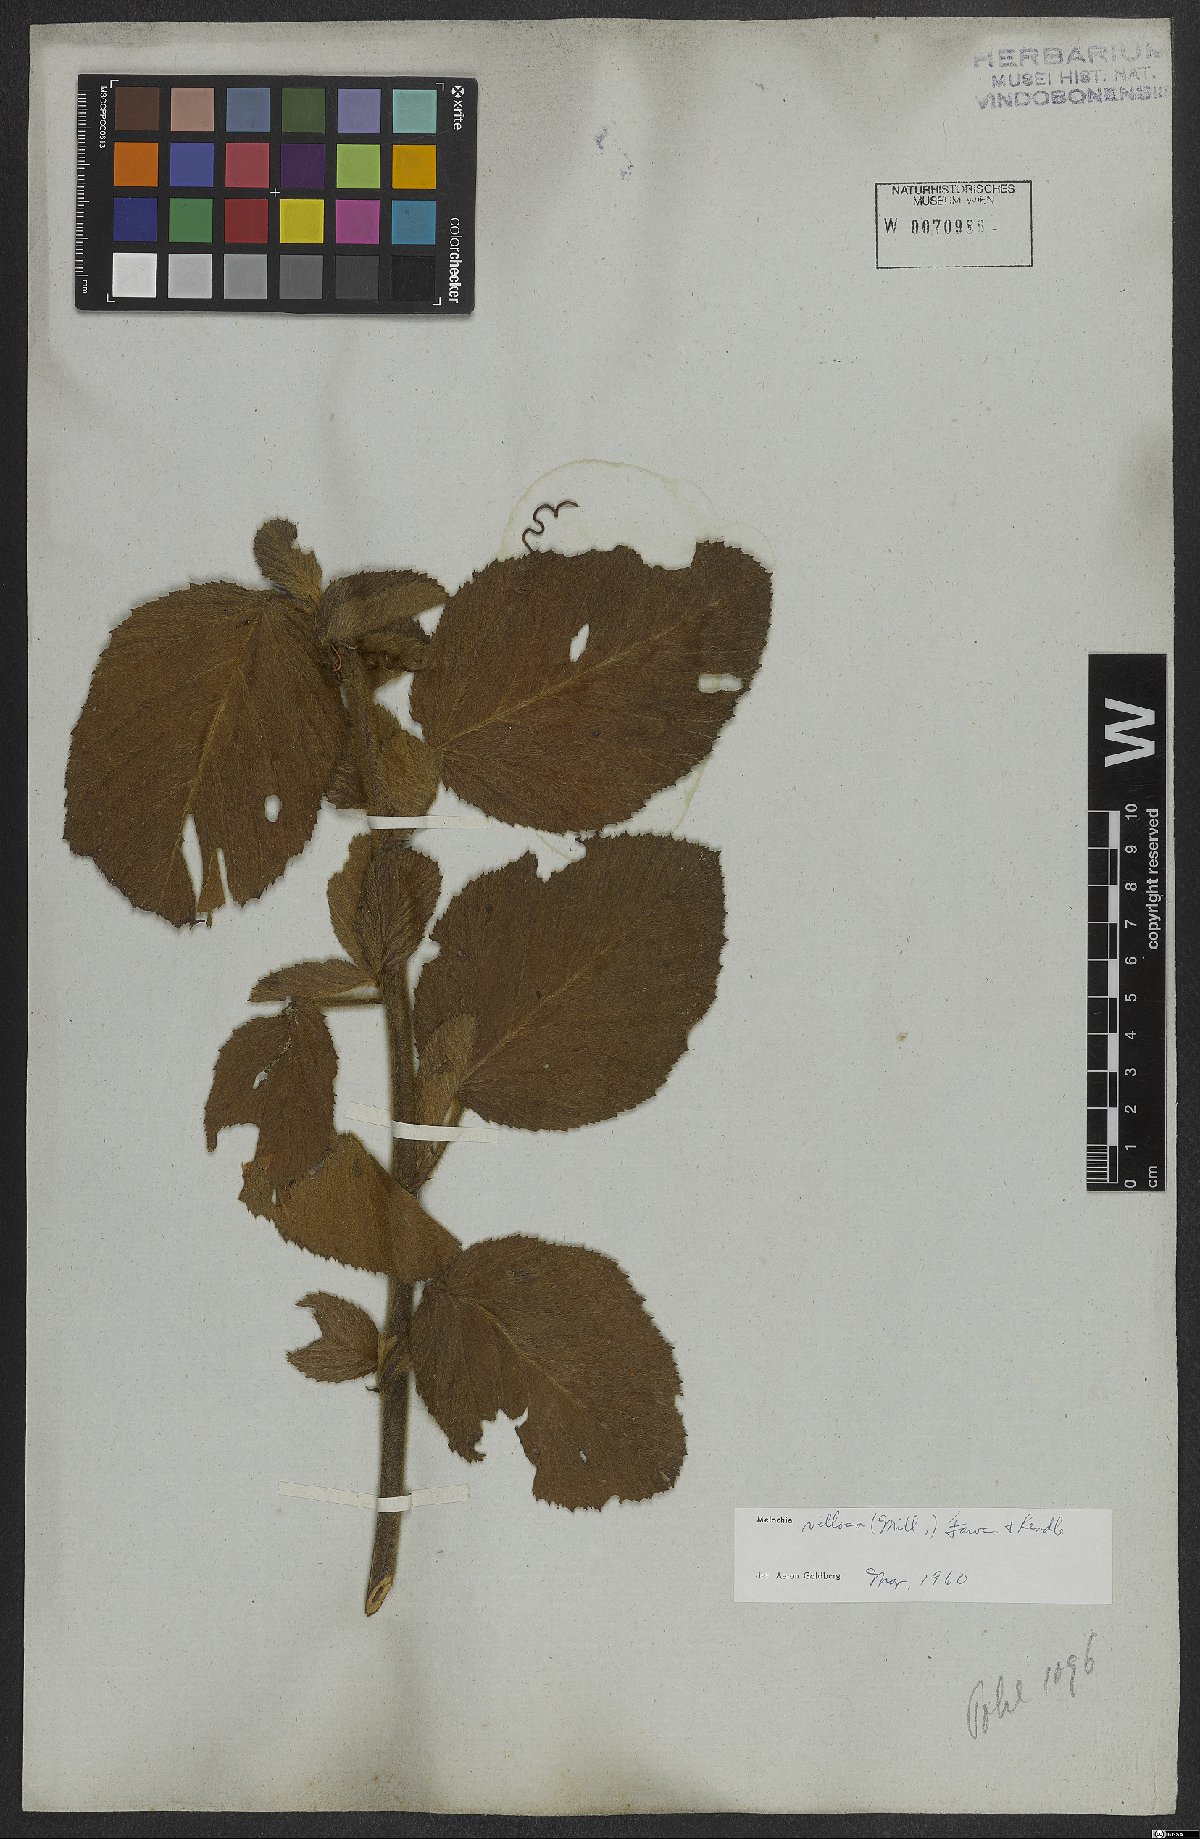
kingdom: Plantae
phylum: Tracheophyta
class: Magnoliopsida
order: Malvales
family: Malvaceae
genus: Melochia
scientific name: Melochia spicata
